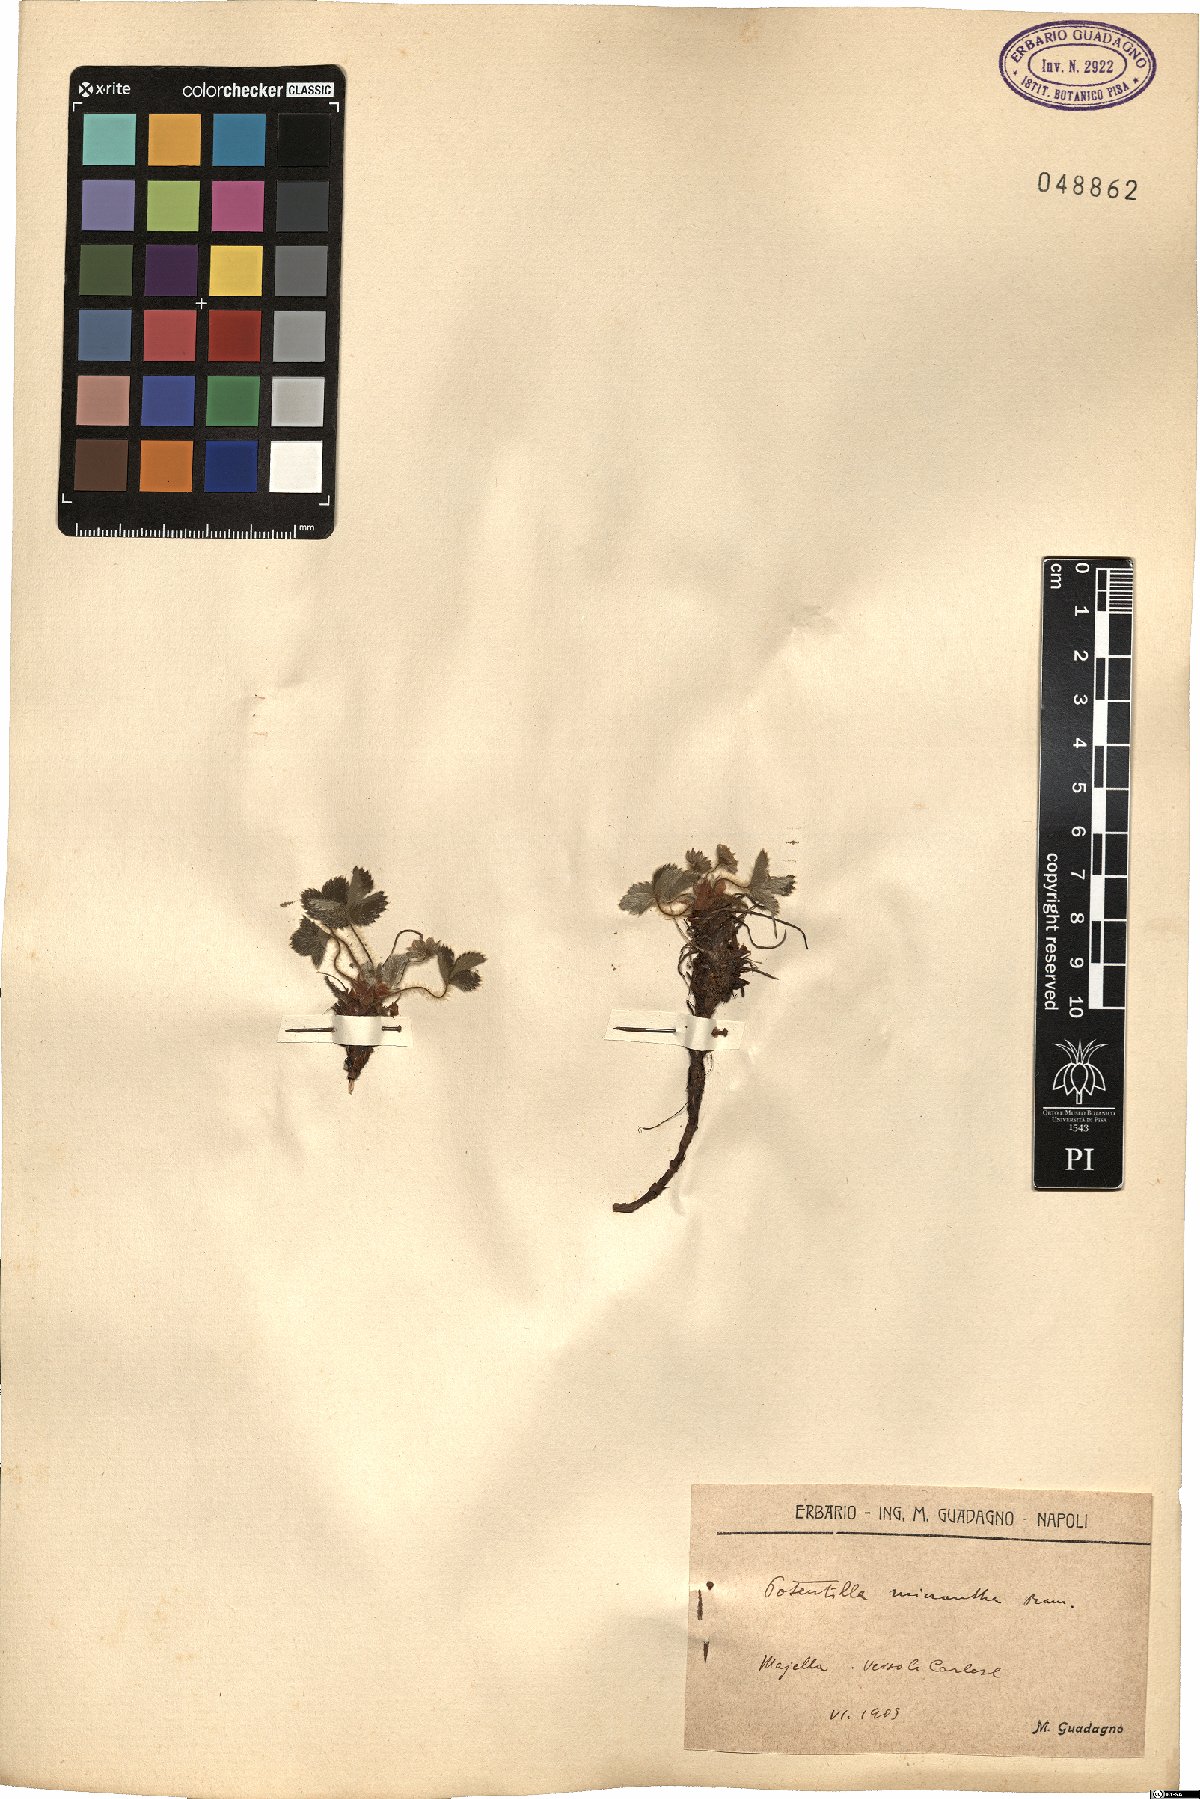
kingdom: Plantae
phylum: Tracheophyta
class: Magnoliopsida
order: Rosales
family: Rosaceae
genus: Potentilla
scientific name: Potentilla micrantha
